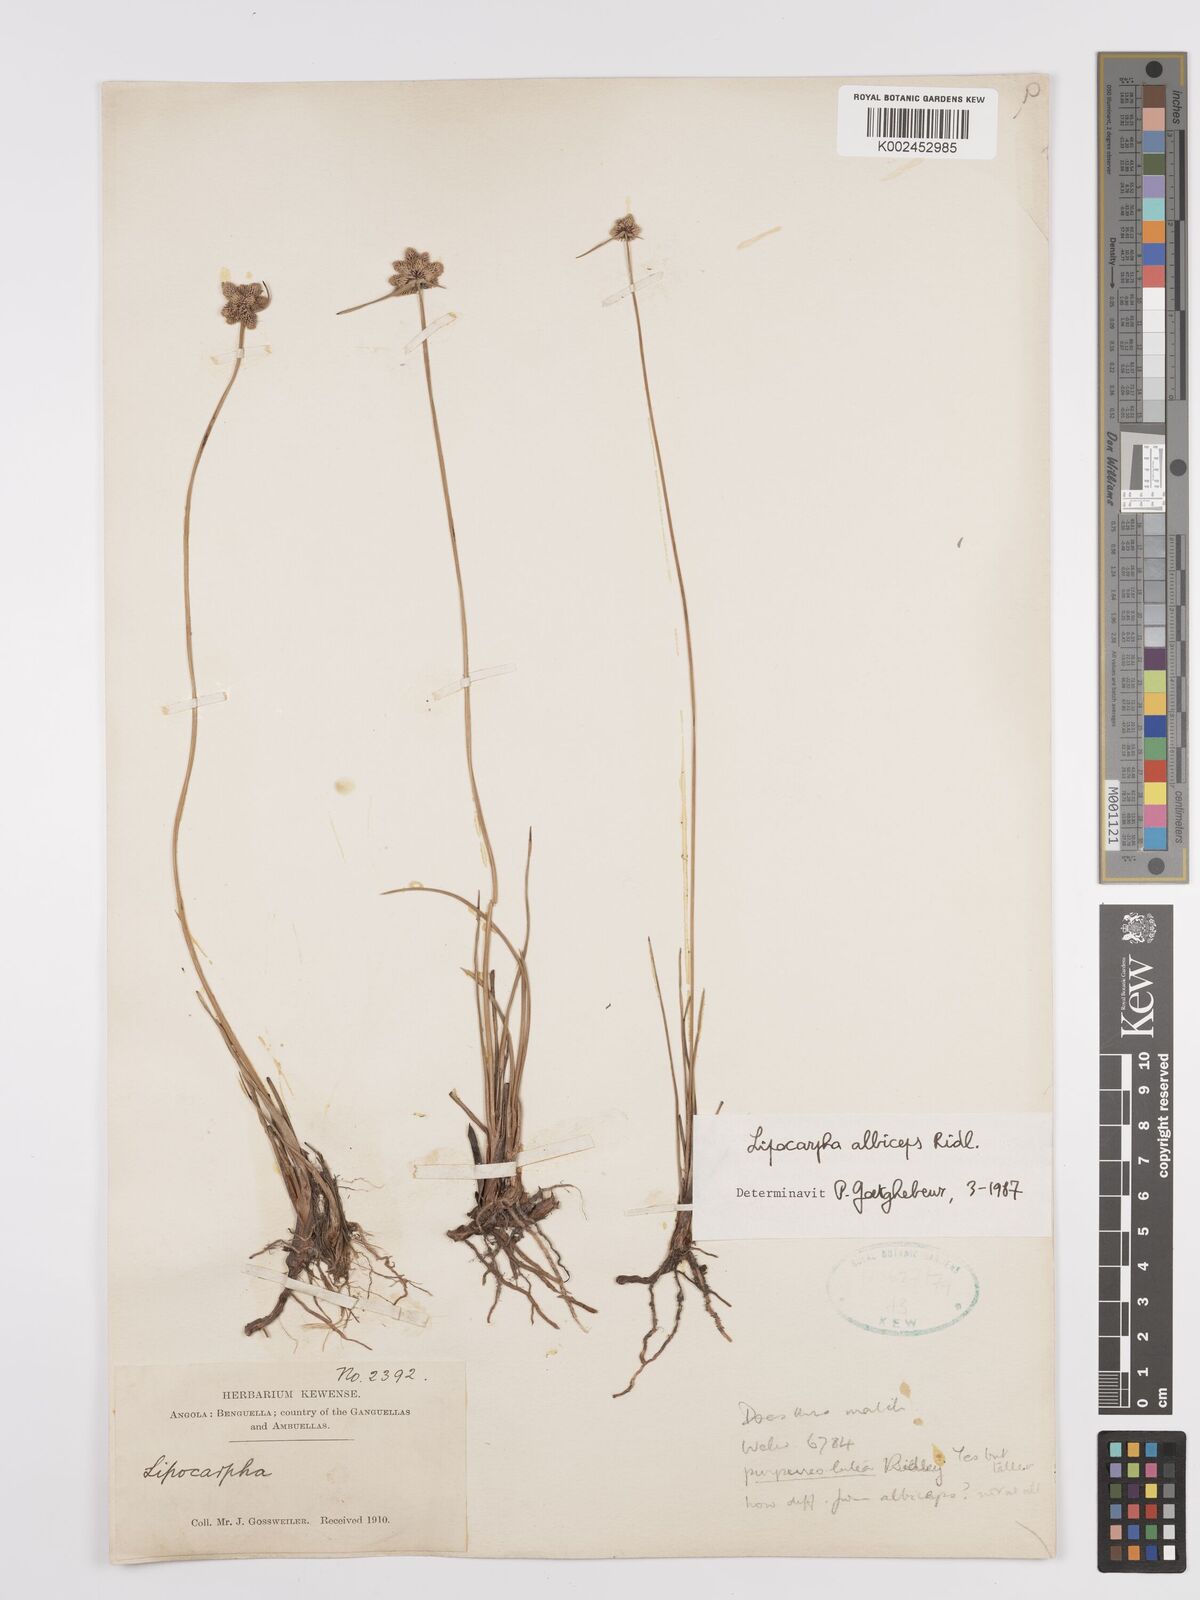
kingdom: Plantae
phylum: Tracheophyta
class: Liliopsida
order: Poales
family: Cyperaceae
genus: Cyperus
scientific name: Cyperus albiceps
